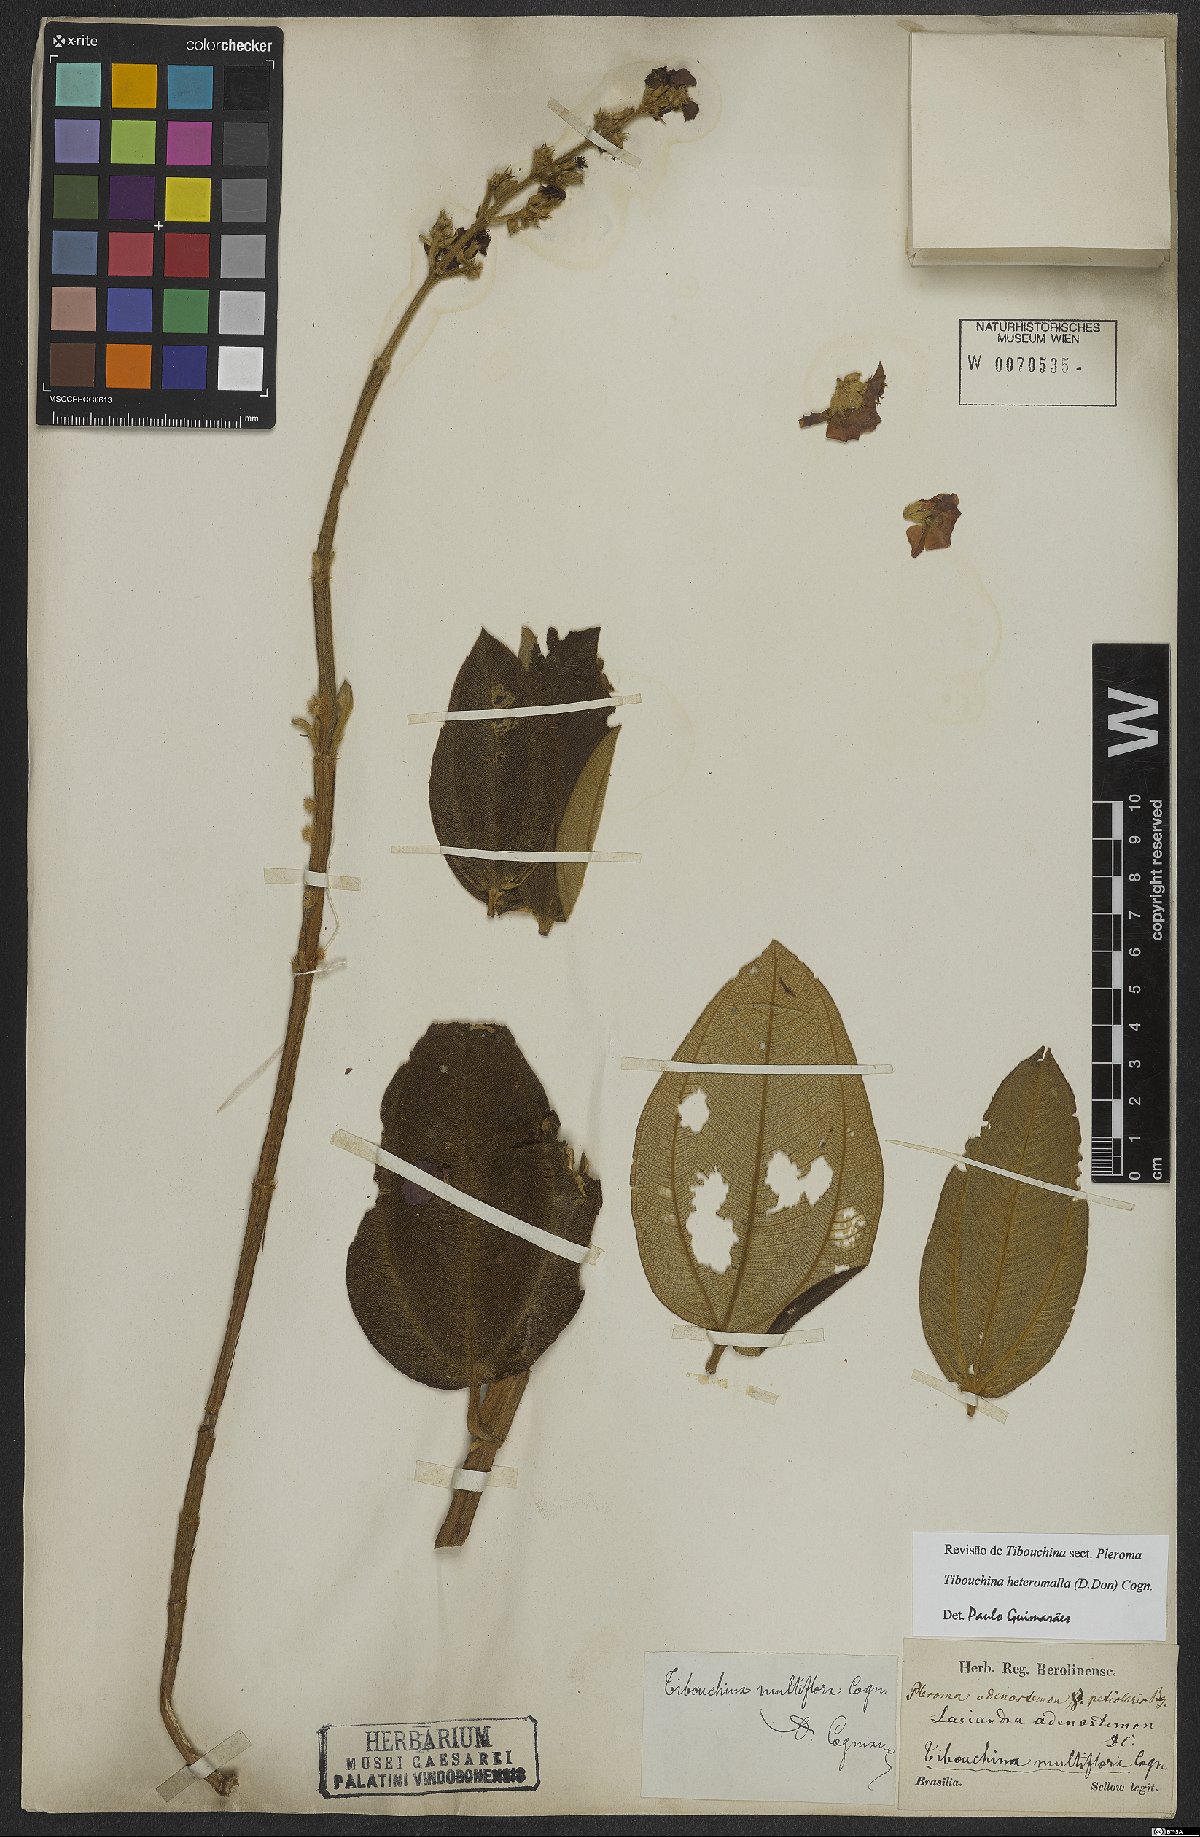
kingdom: Plantae
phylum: Tracheophyta
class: Magnoliopsida
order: Myrtales
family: Melastomataceae
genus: Pleroma
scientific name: Pleroma heteromallum
